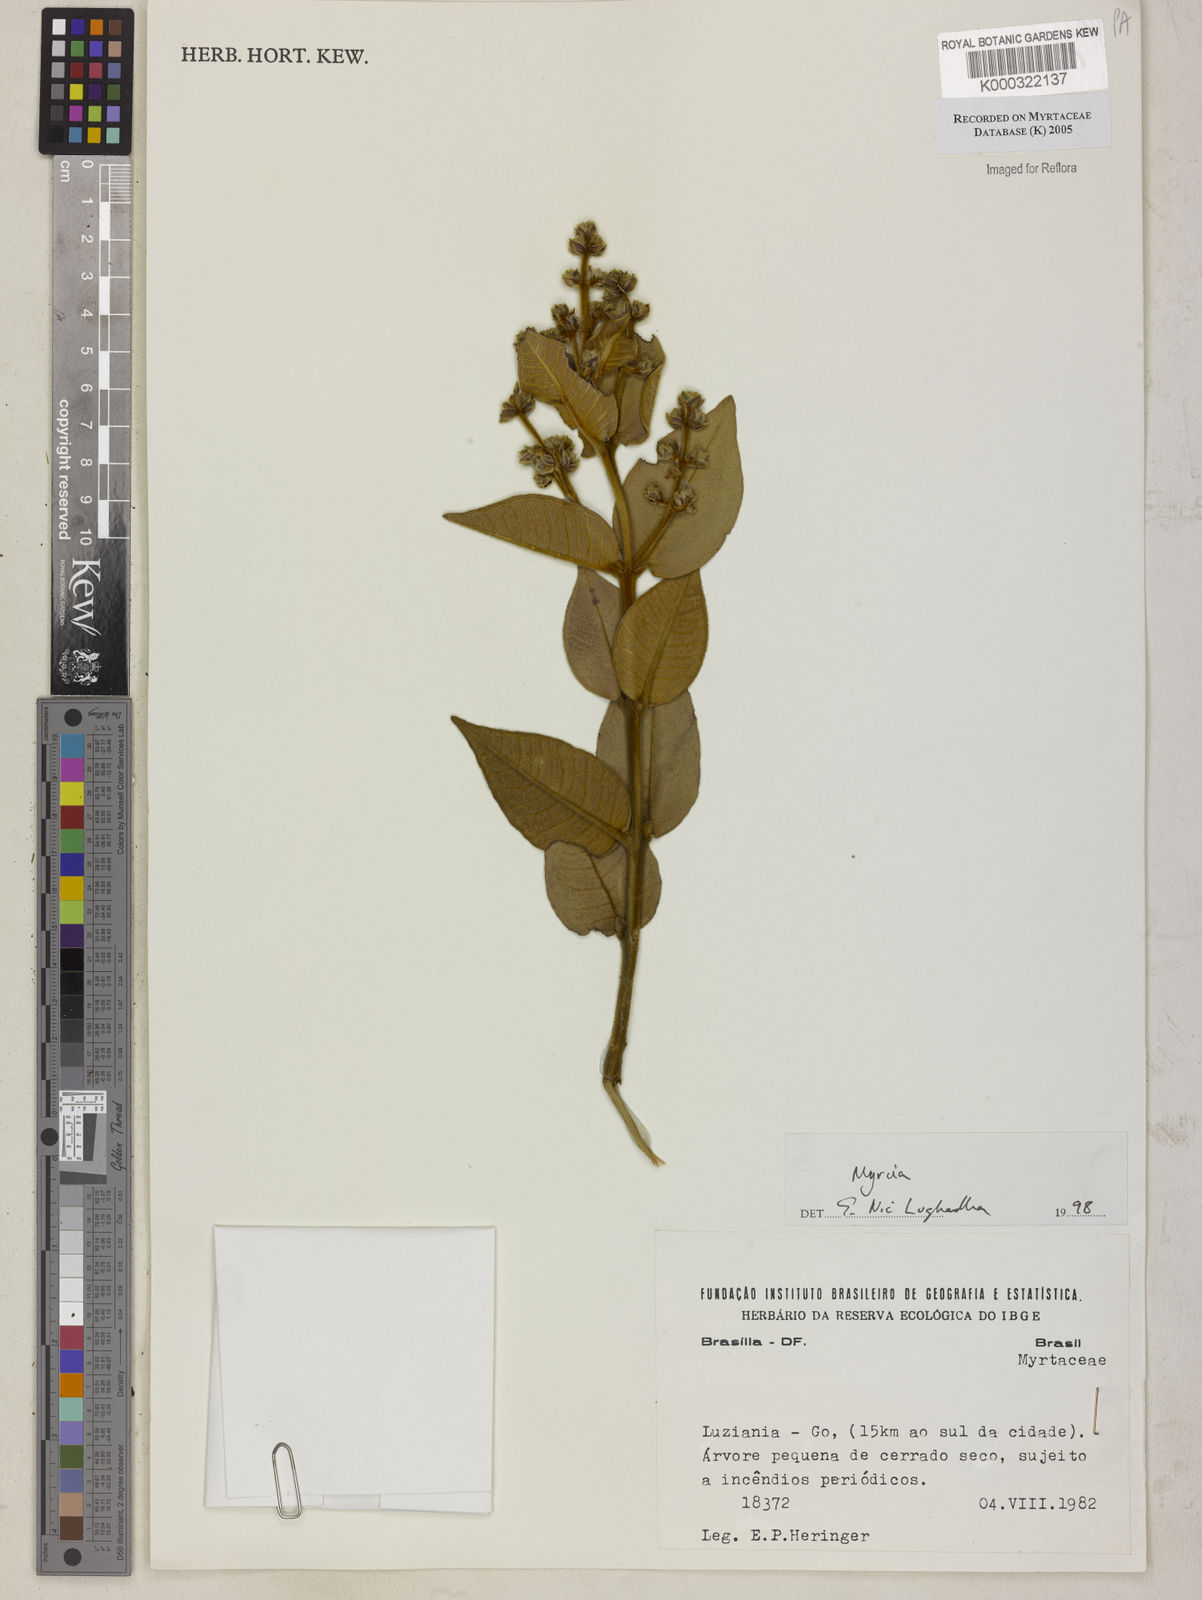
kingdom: Plantae
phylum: Tracheophyta
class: Magnoliopsida
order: Myrtales
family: Myrtaceae
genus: Myrcia
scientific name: Myrcia
